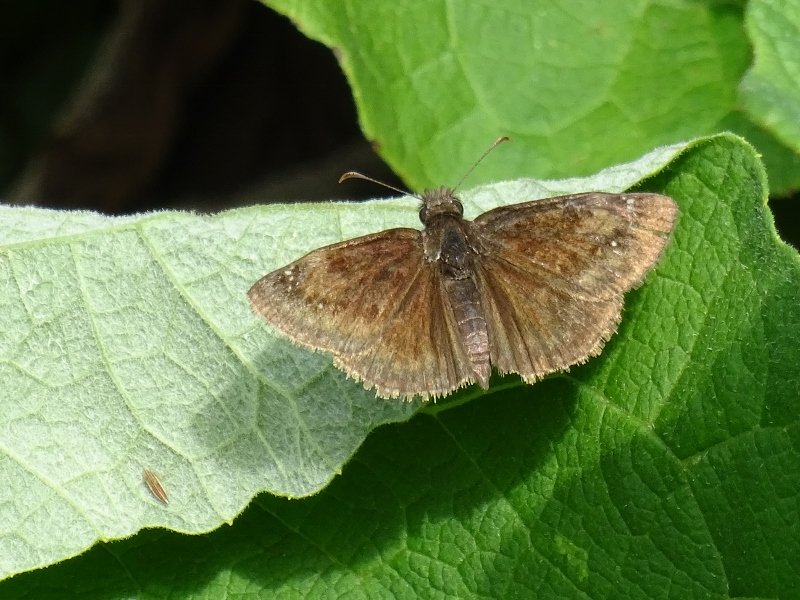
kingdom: Animalia
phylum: Arthropoda
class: Insecta
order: Lepidoptera
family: Hesperiidae
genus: Gesta
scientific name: Gesta
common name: Wild Indigo Duskywing
